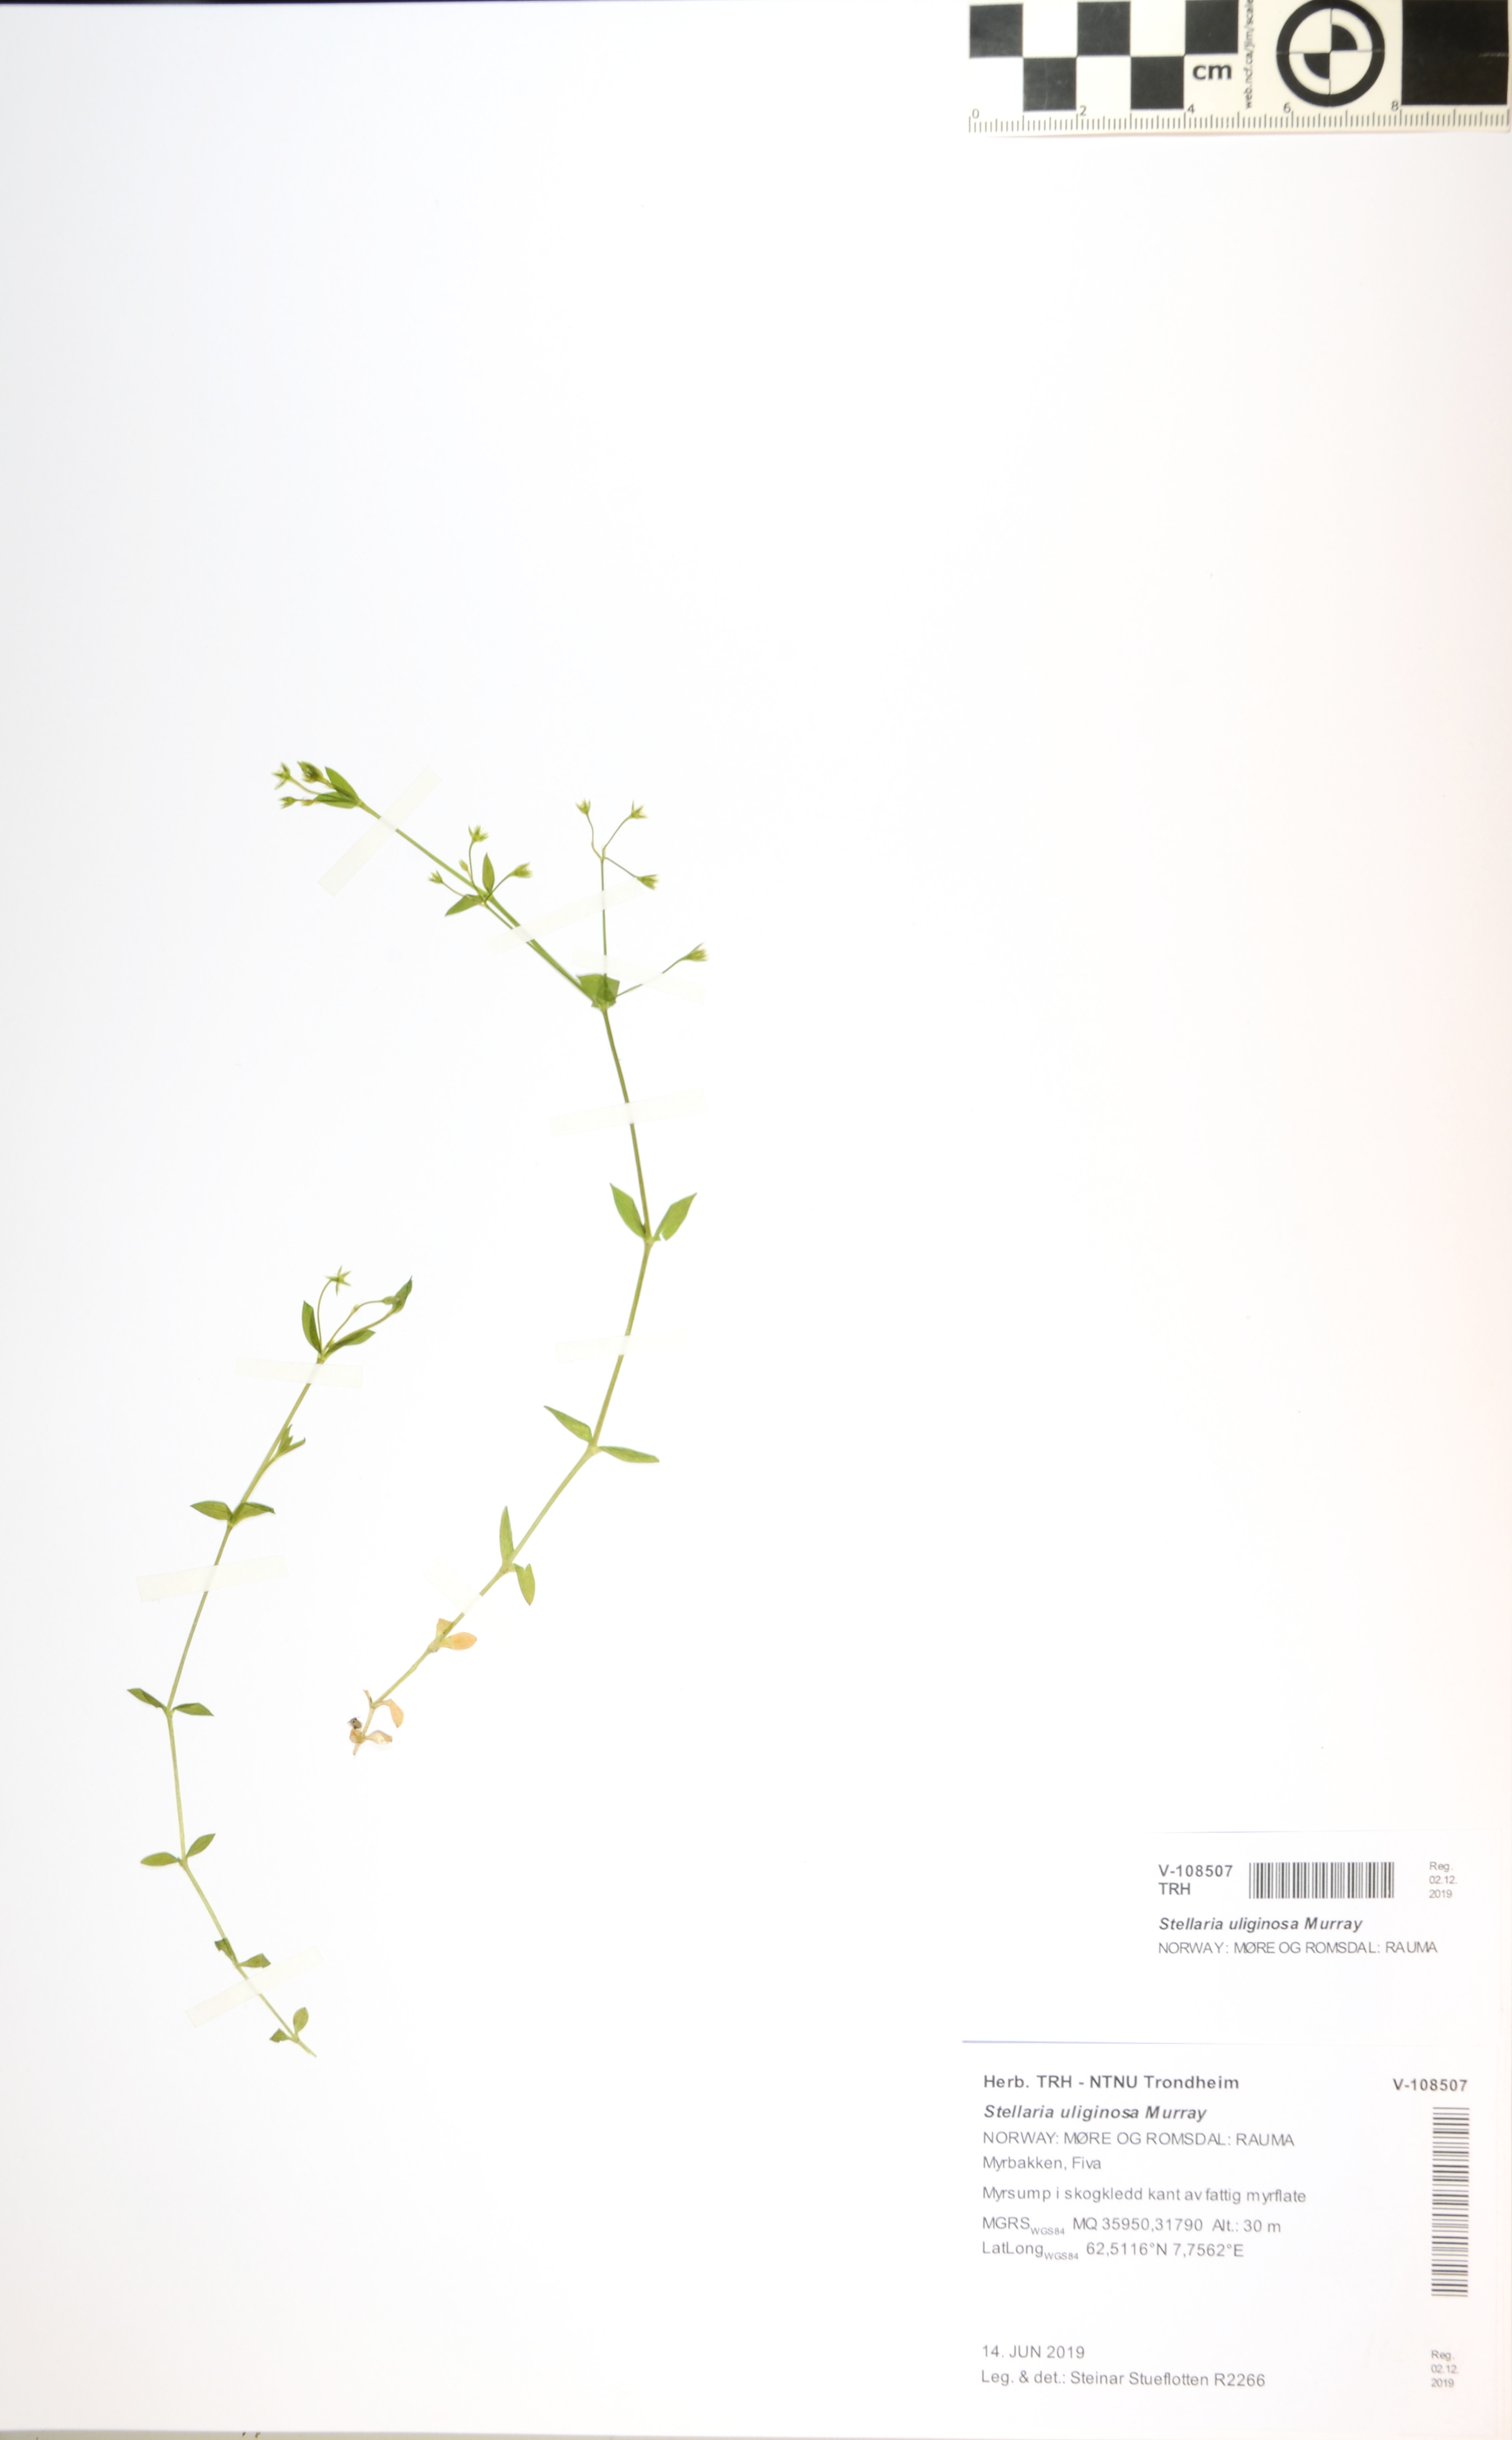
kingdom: Plantae
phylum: Tracheophyta
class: Magnoliopsida
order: Caryophyllales
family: Caryophyllaceae
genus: Stellaria
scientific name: Stellaria alsine
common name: Bog stitchwort
